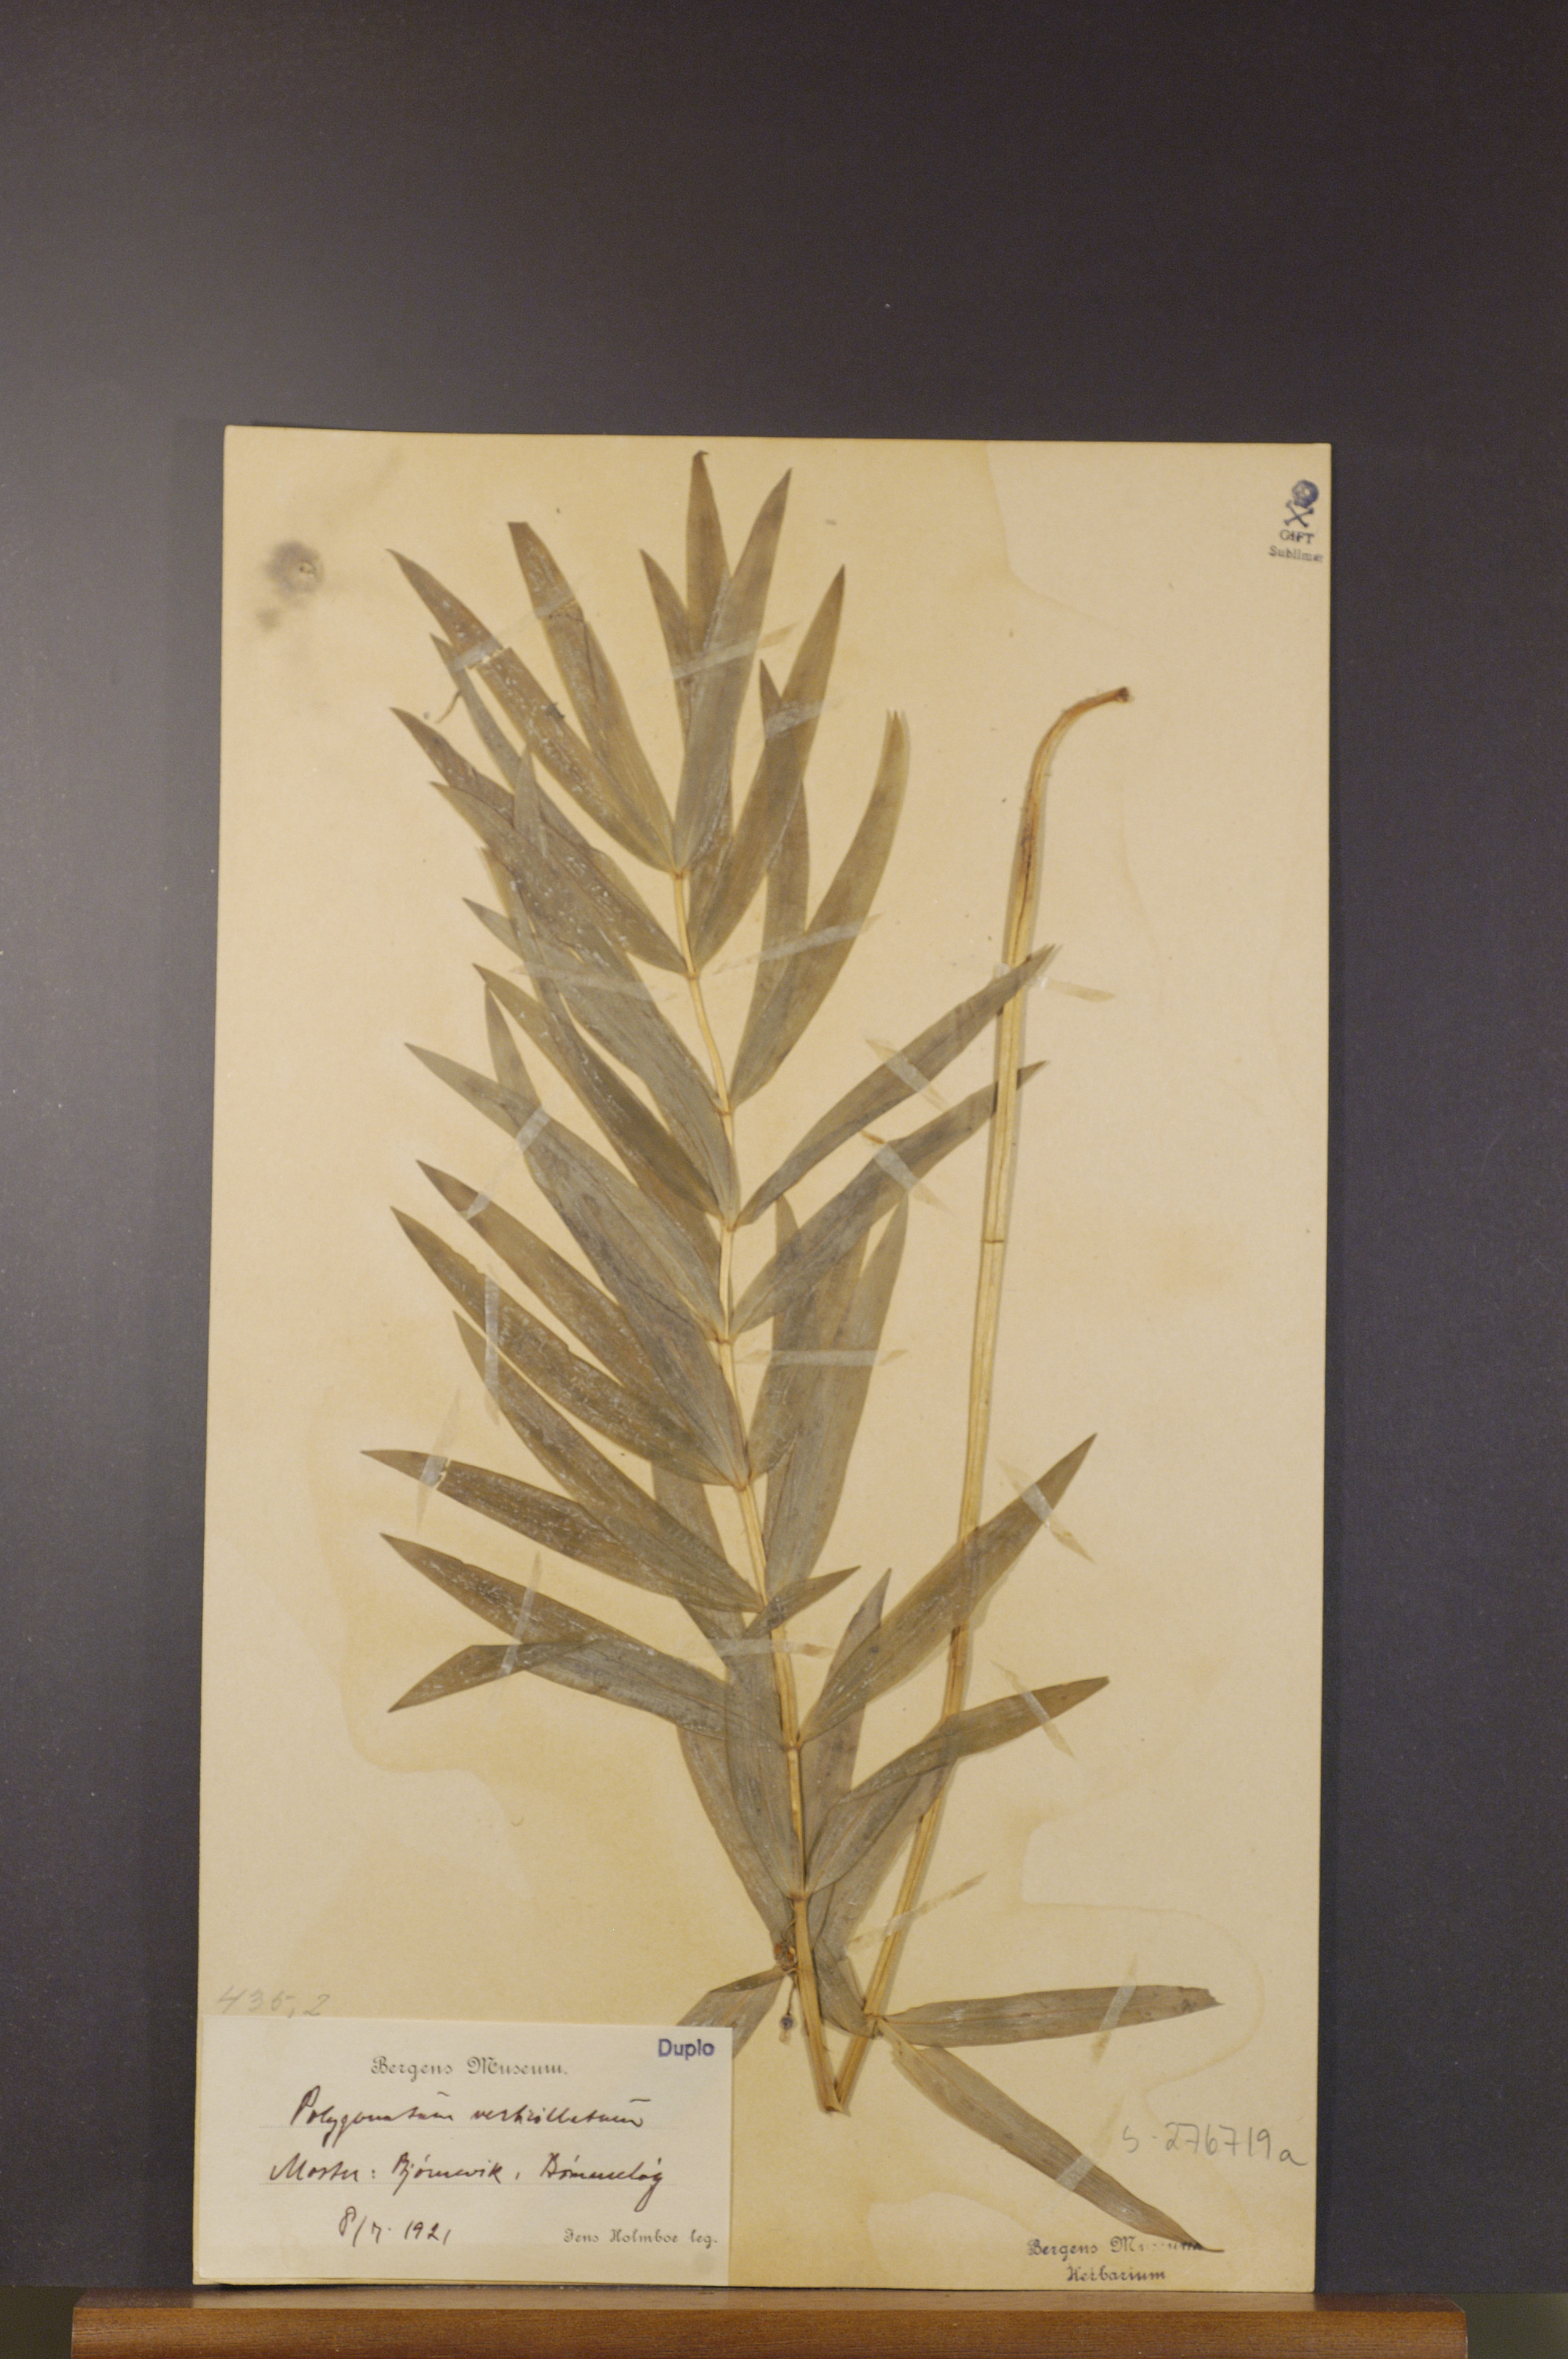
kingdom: Plantae
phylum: Tracheophyta
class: Liliopsida
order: Asparagales
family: Asparagaceae
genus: Polygonatum
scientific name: Polygonatum verticillatum
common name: Whorled solomon's-seal
